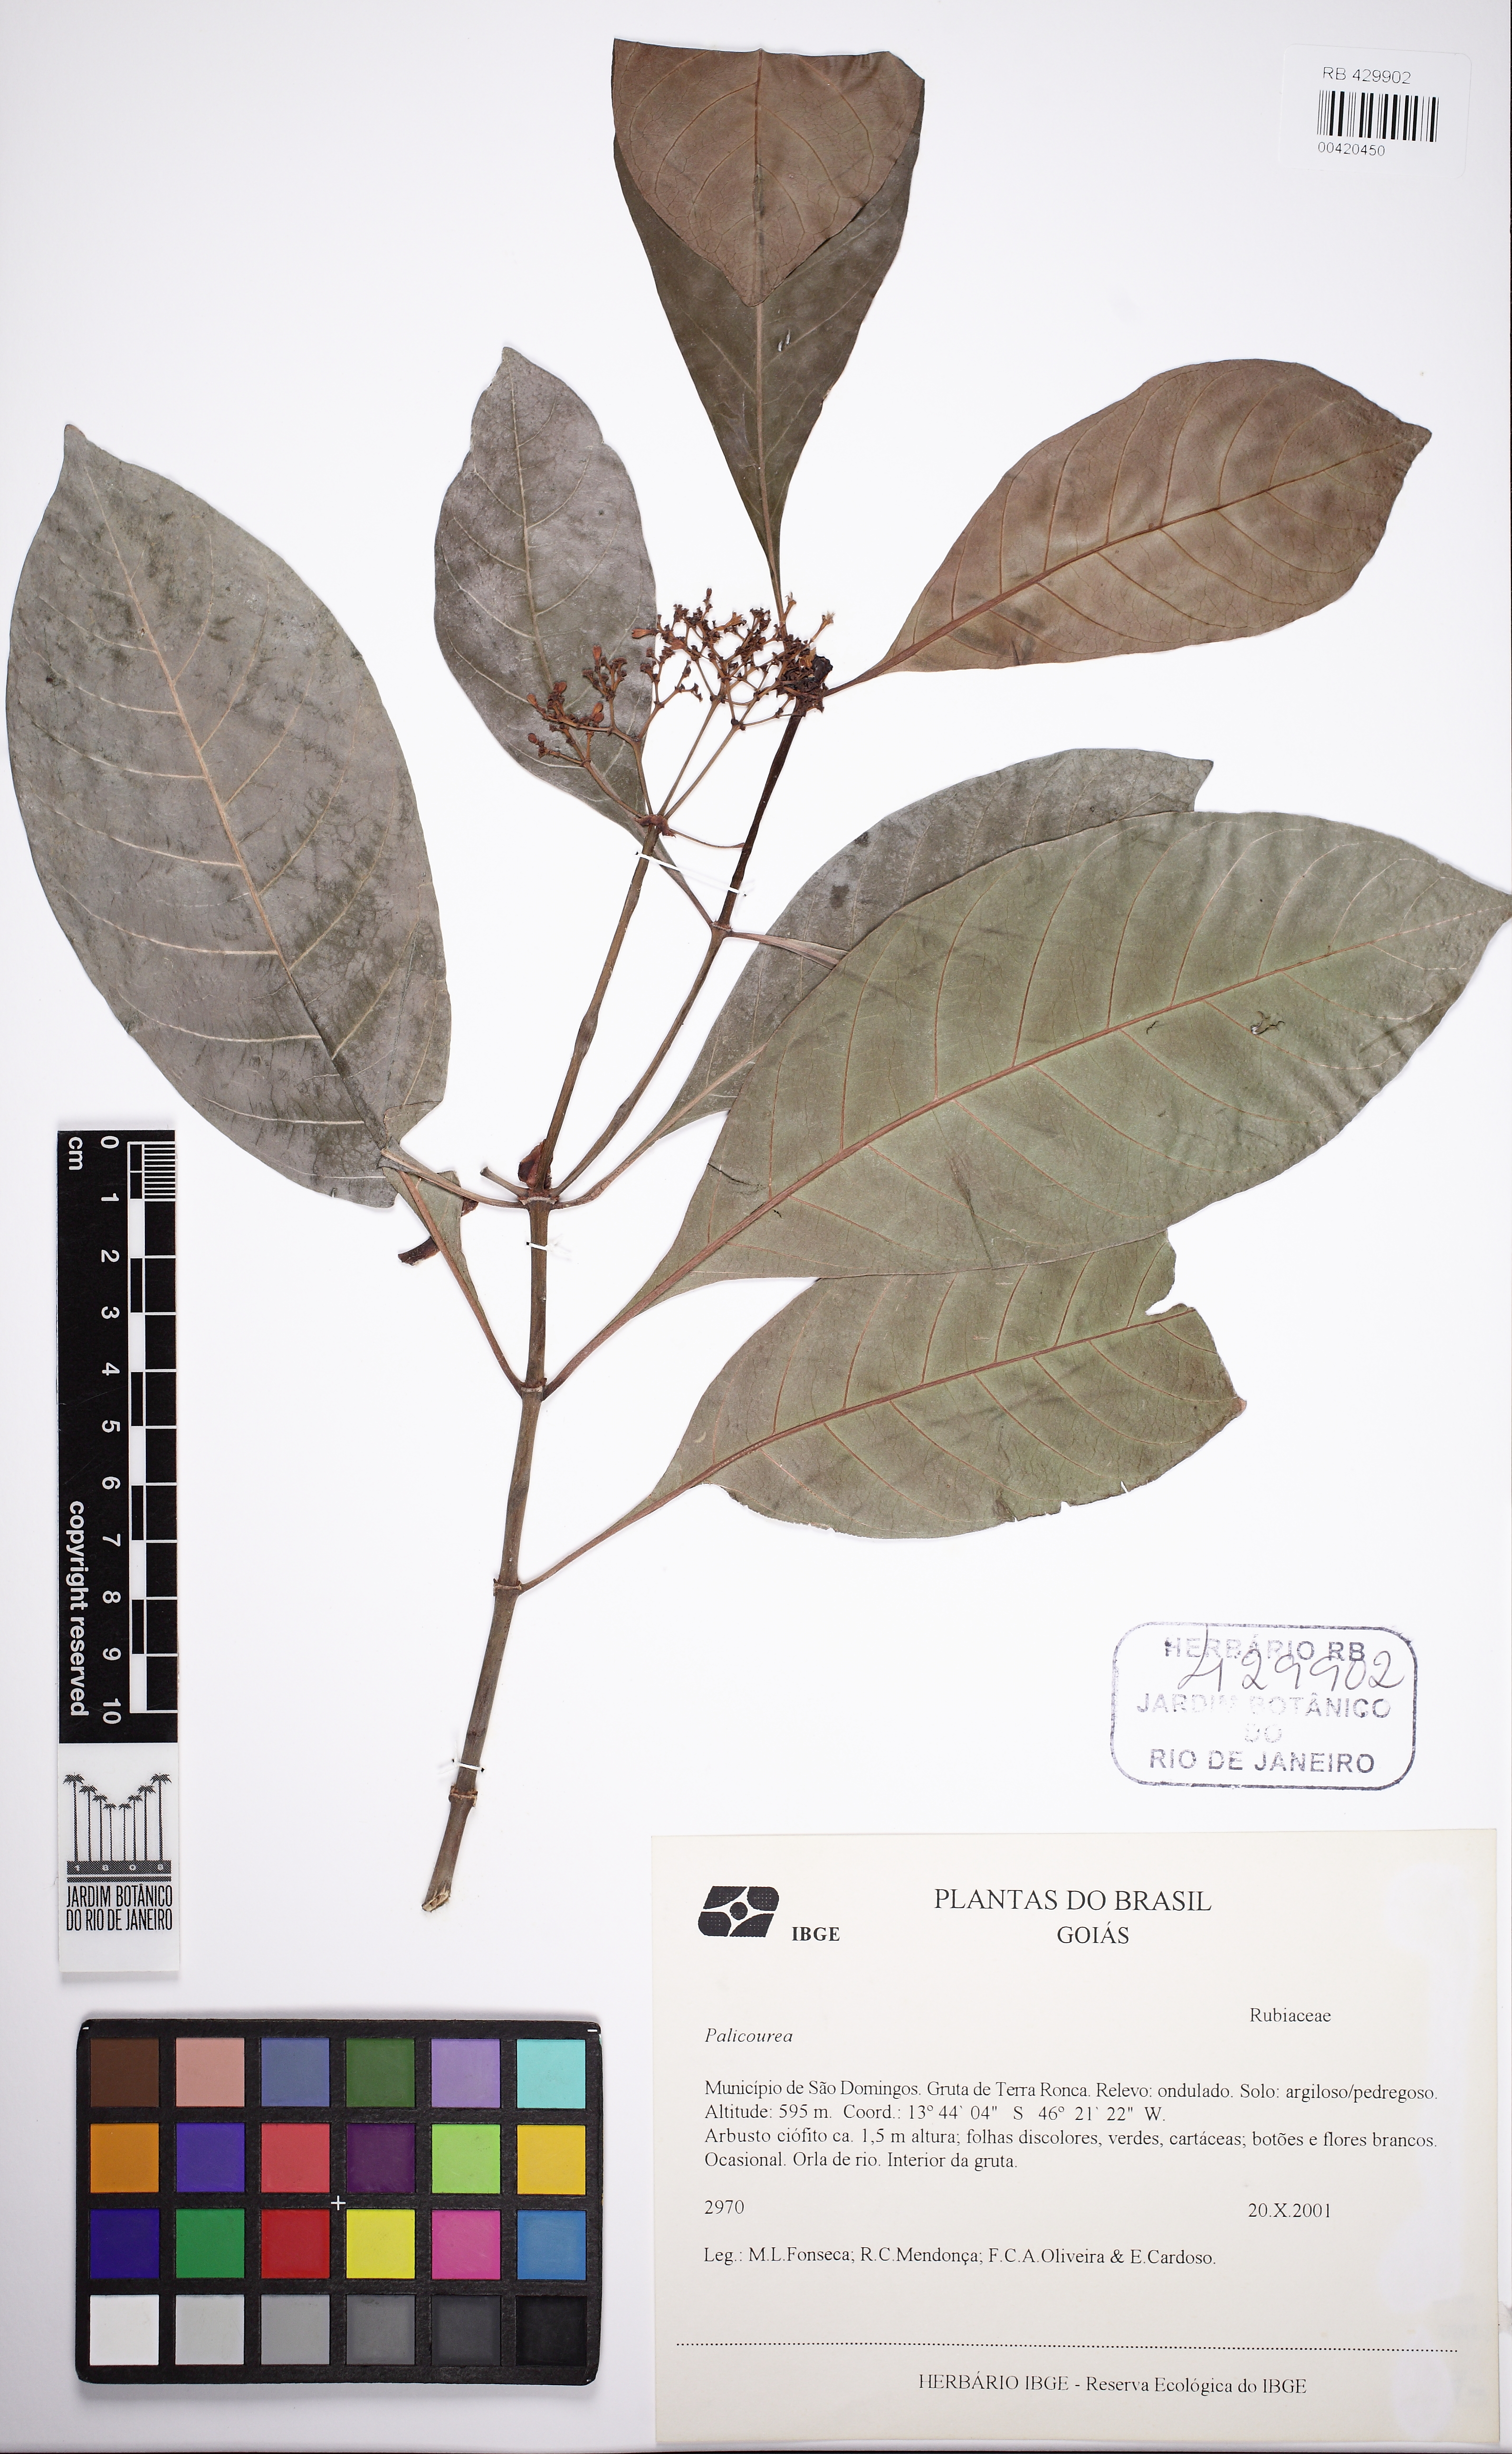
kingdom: Plantae
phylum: Tracheophyta
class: Magnoliopsida
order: Gentianales
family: Rubiaceae
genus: Psychotria
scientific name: Psychotria
